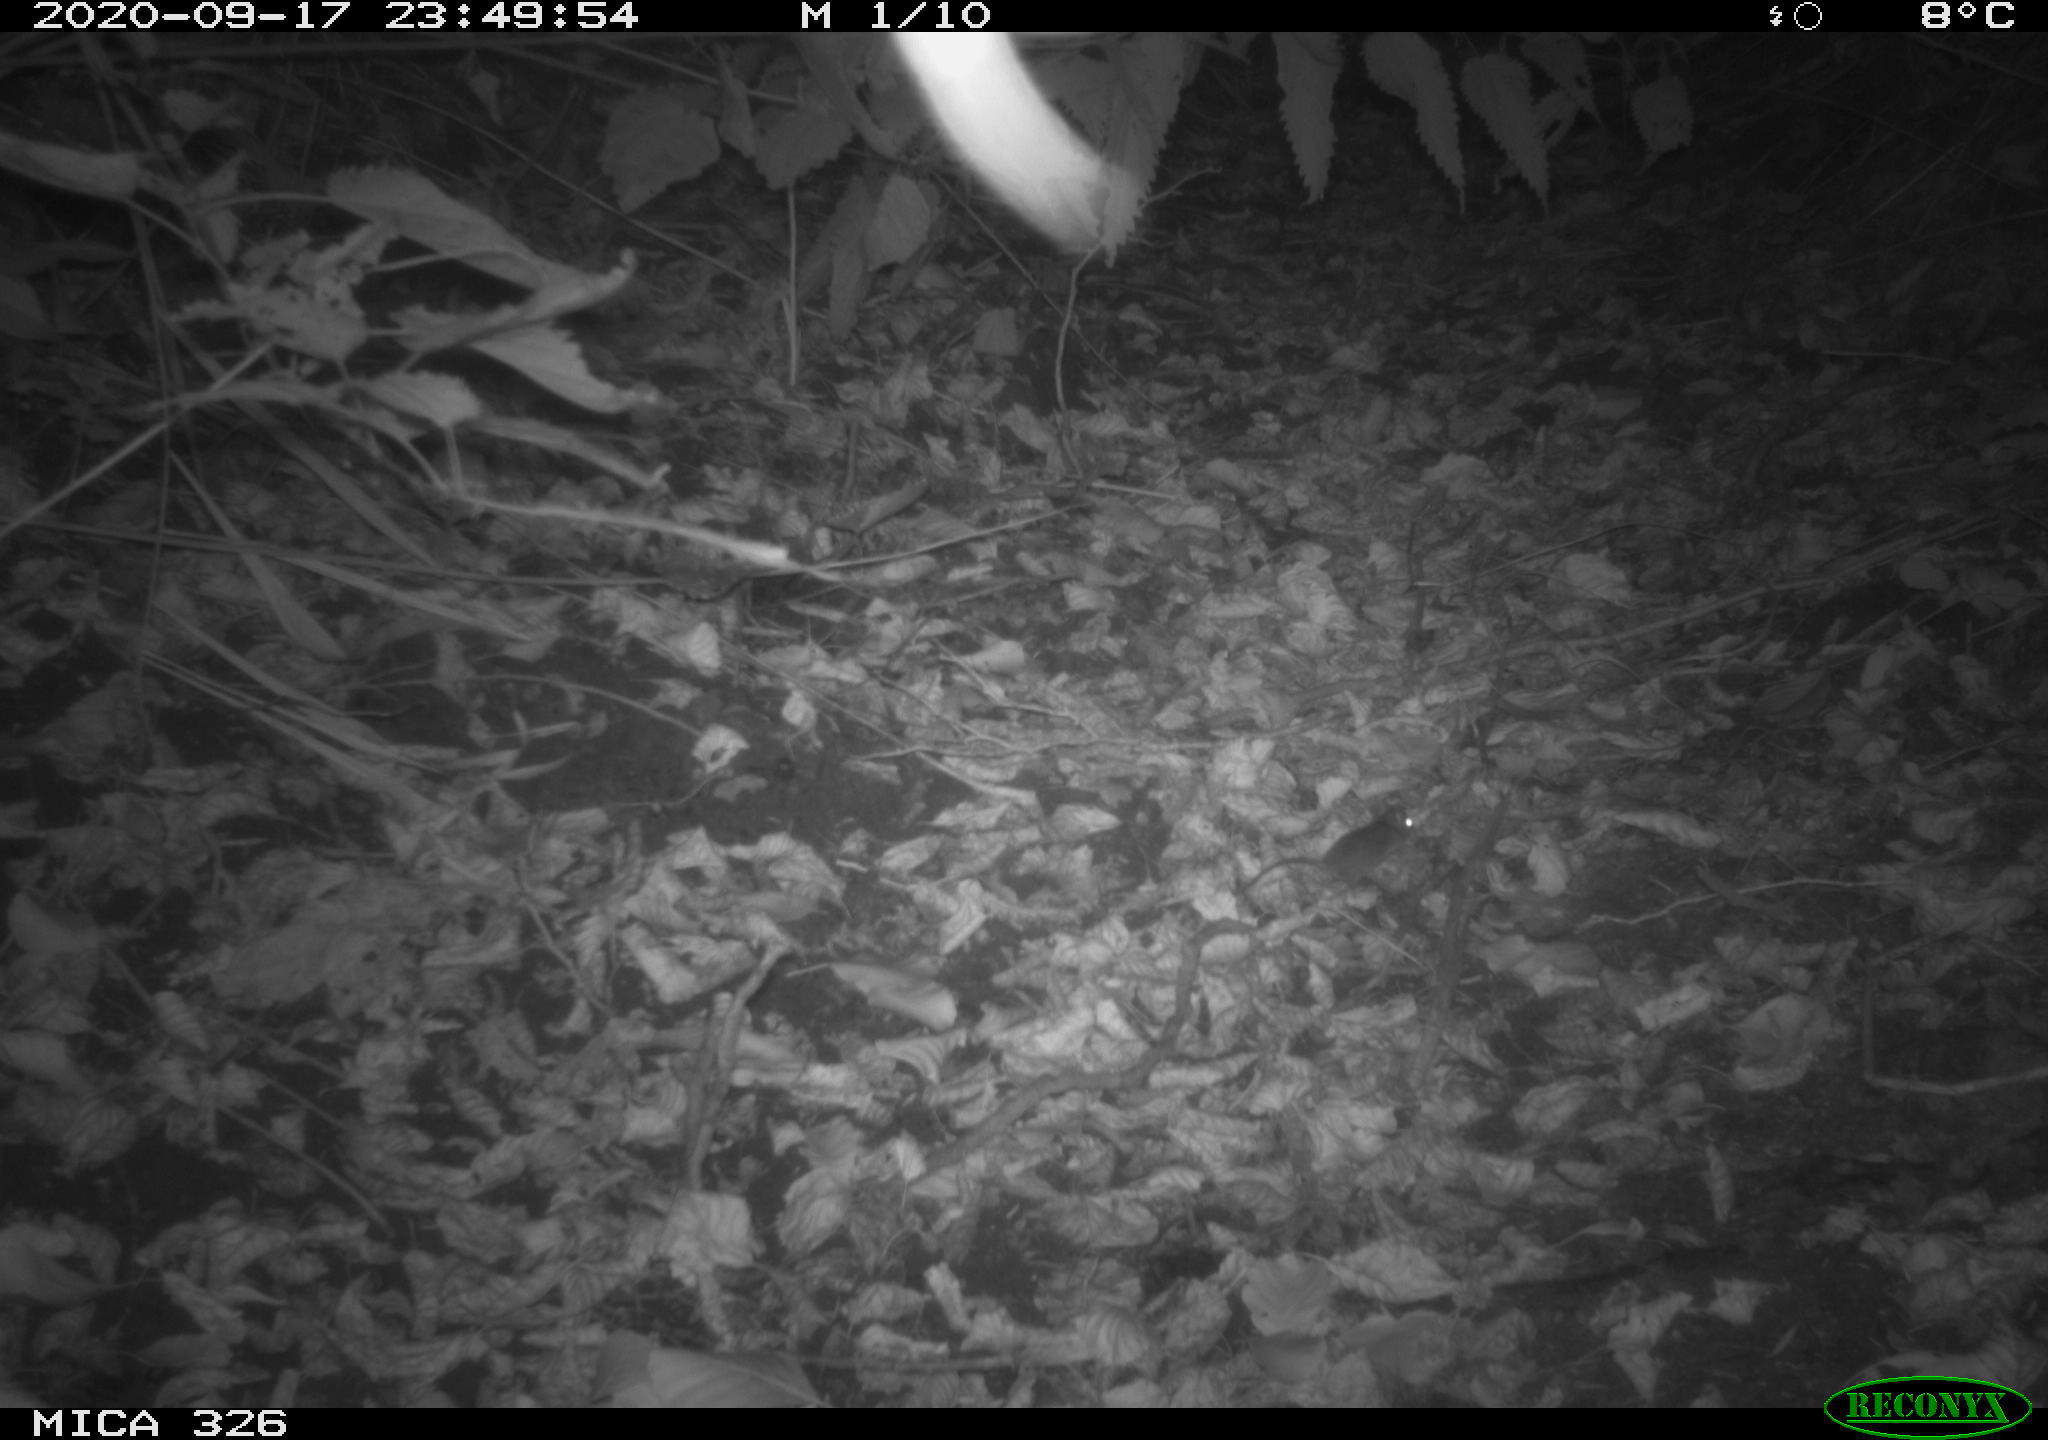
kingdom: Animalia
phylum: Chordata
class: Mammalia
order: Rodentia
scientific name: Rodentia
